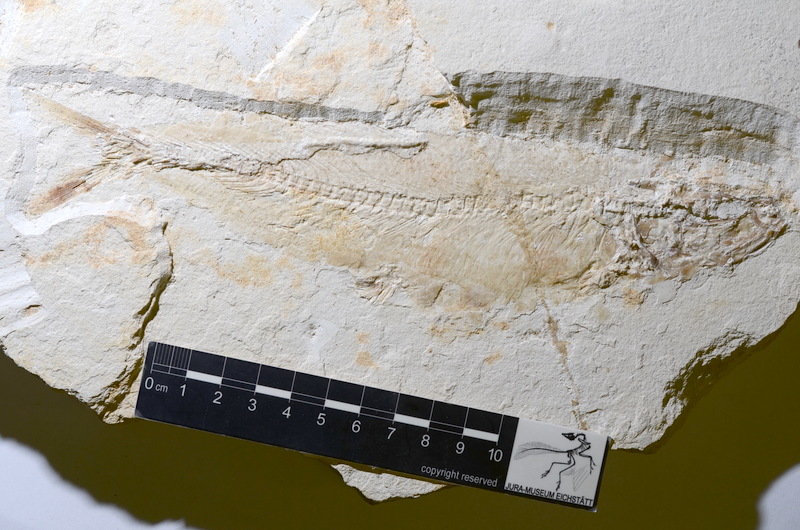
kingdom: Animalia
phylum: Chordata
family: Ascalaboidae
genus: Tharsis
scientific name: Tharsis
